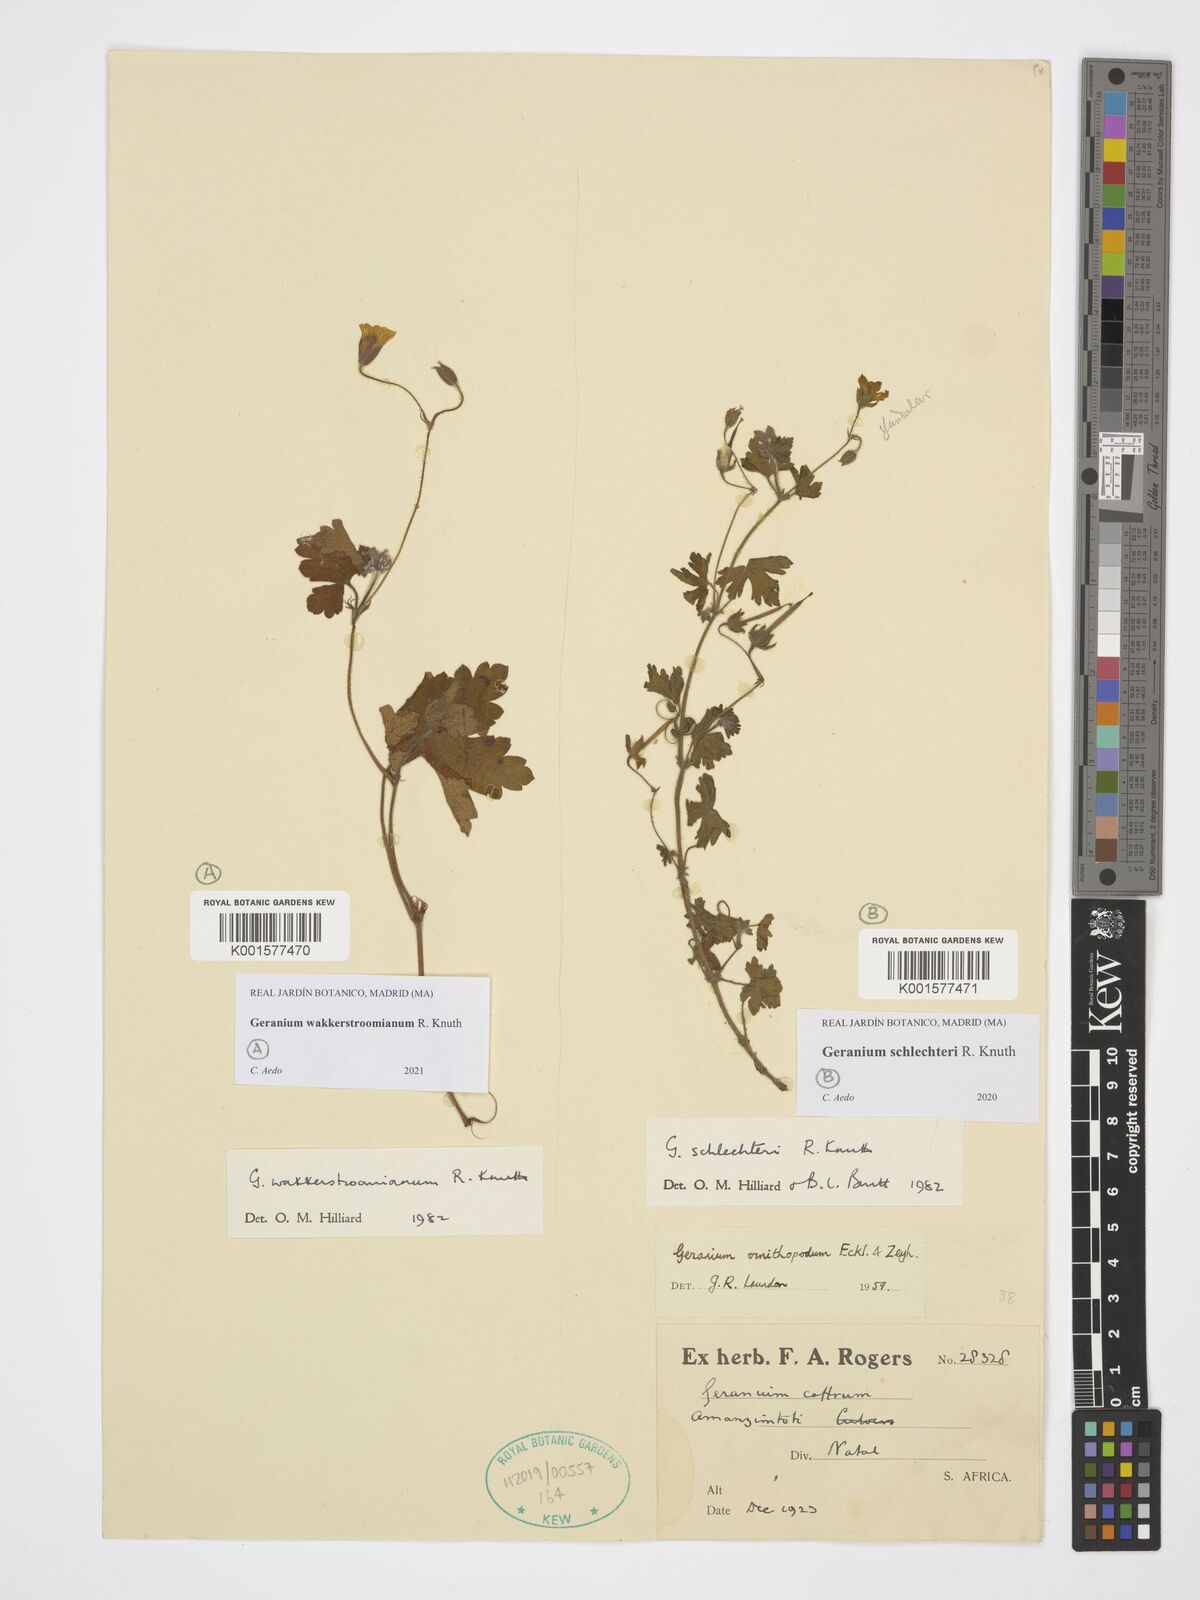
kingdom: Plantae
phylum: Tracheophyta
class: Magnoliopsida
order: Geraniales
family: Geraniaceae
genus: Geranium
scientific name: Geranium schlechteri
